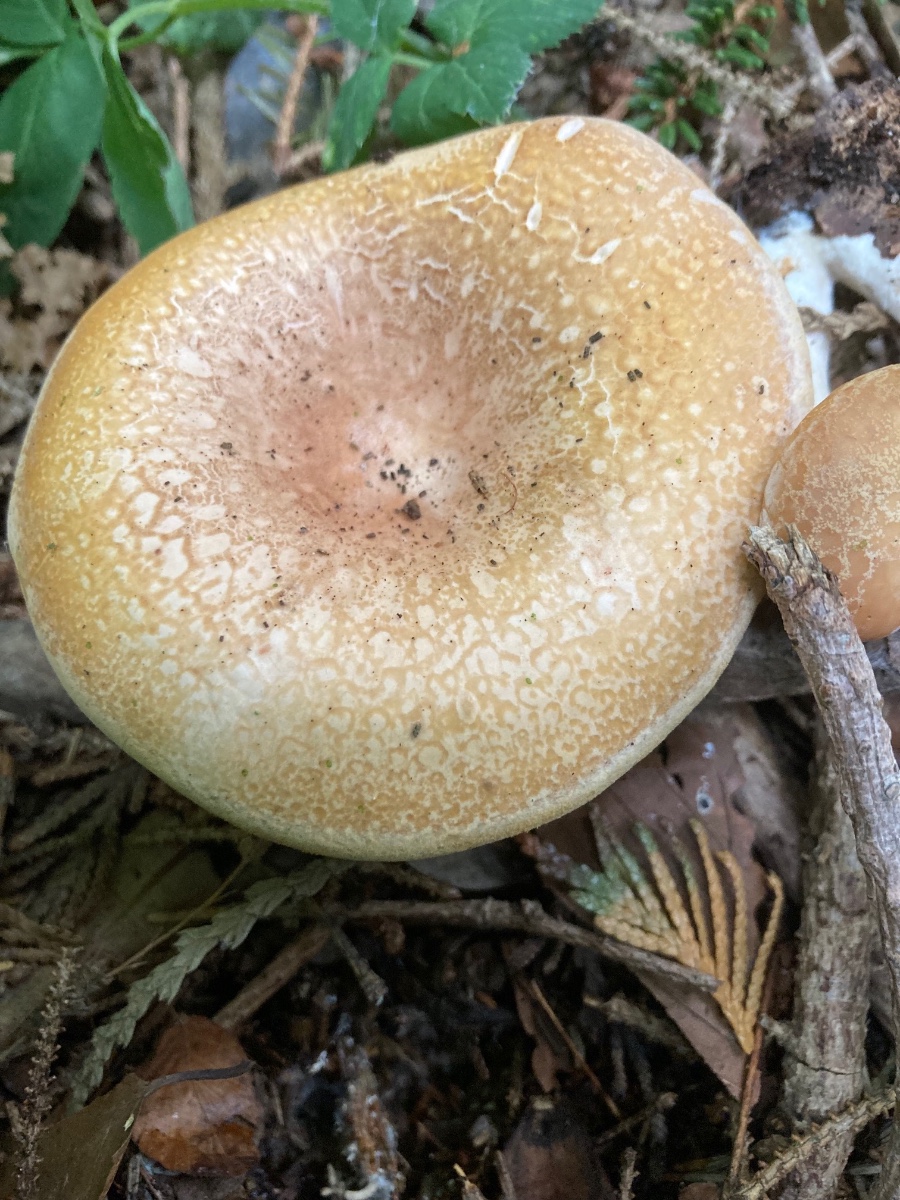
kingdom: Fungi
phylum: Basidiomycota
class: Agaricomycetes
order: Agaricales
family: Tricholomataceae
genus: Paralepista
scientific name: Paralepista gilva
